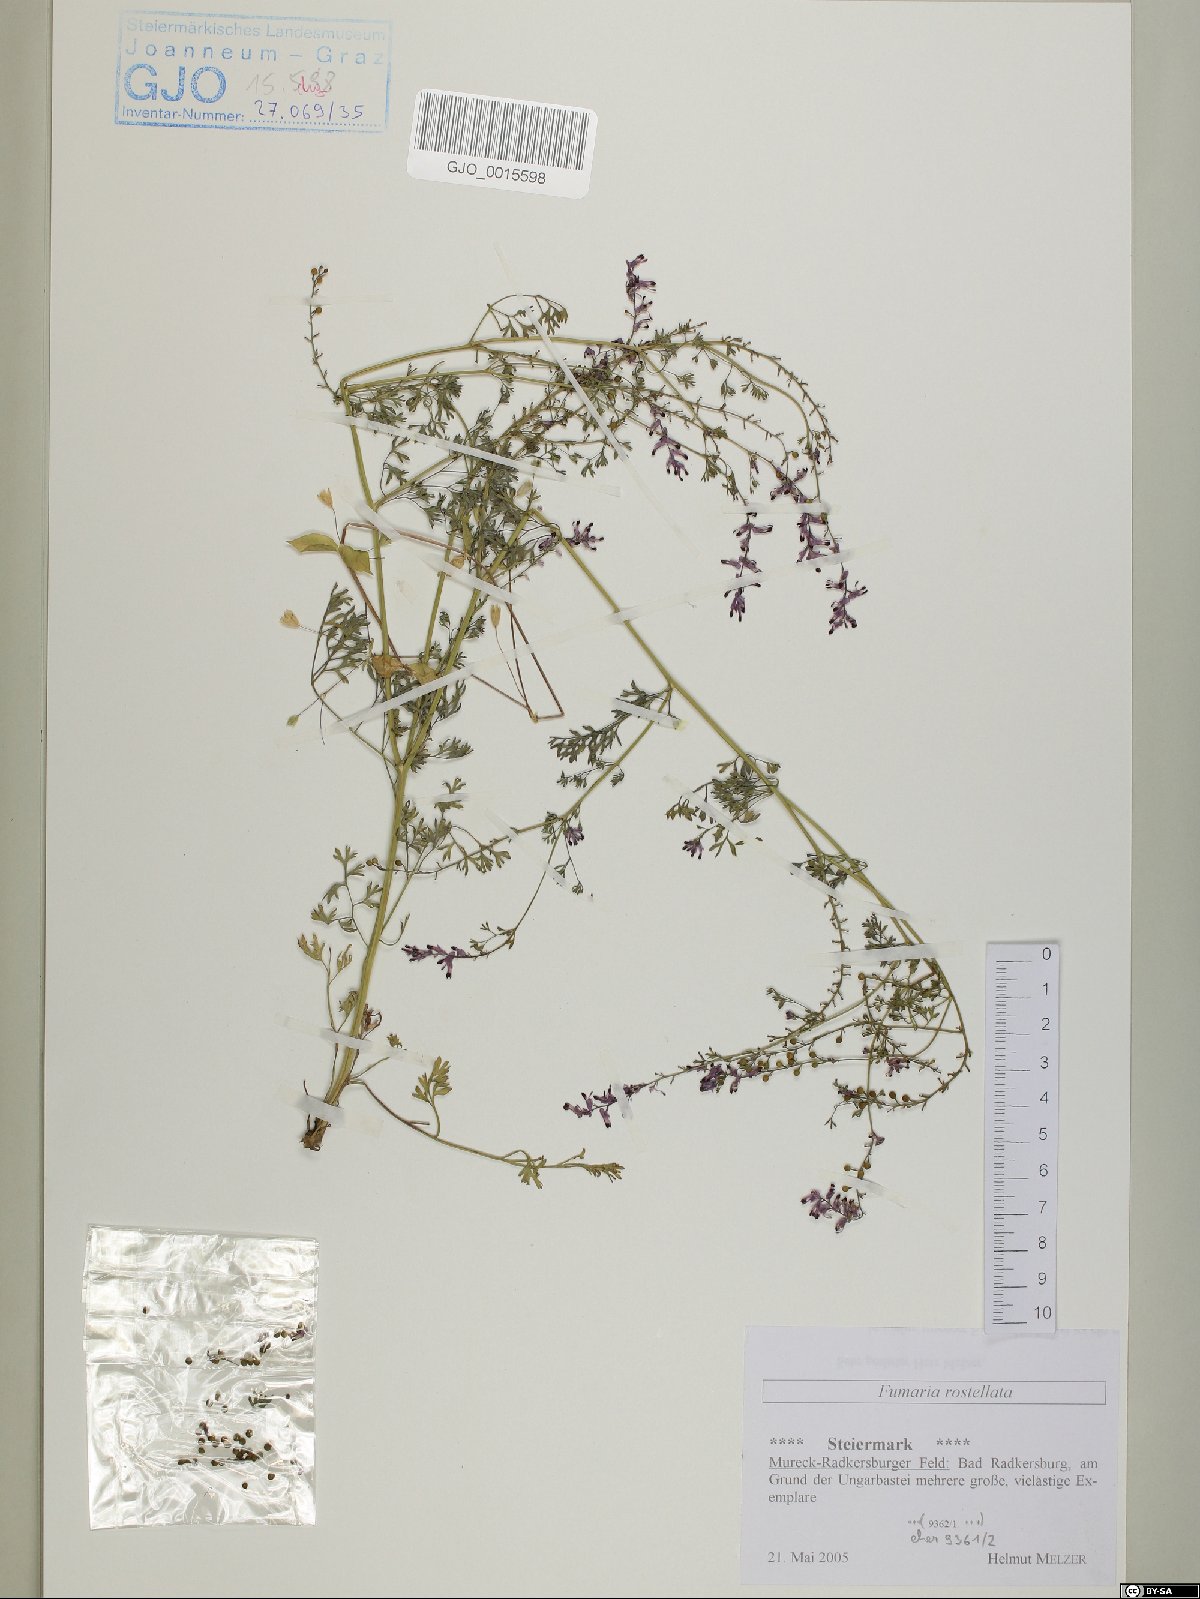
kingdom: Plantae
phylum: Tracheophyta
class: Magnoliopsida
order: Ranunculales
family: Papaveraceae
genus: Fumaria
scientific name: Fumaria rostellata
